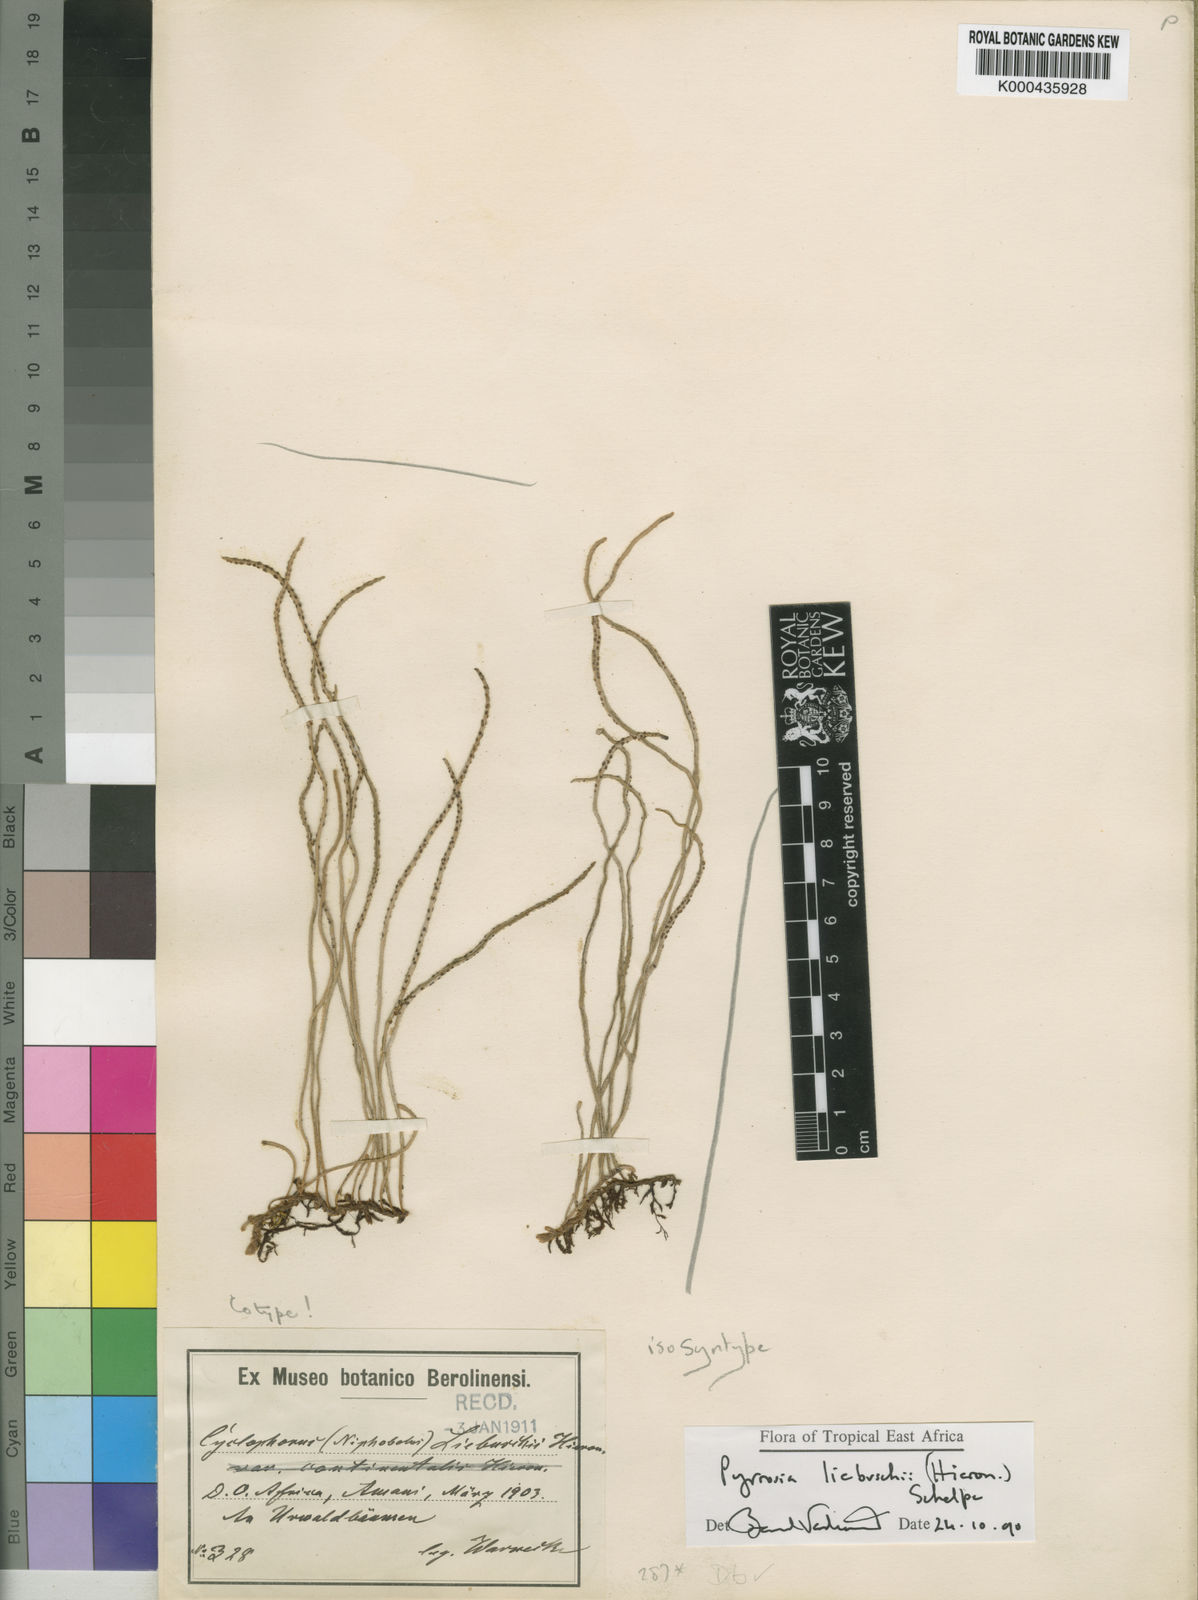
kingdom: Plantae
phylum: Tracheophyta
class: Polypodiopsida
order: Polypodiales
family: Polypodiaceae
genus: Hovenkampia
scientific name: Hovenkampia liebuschii
